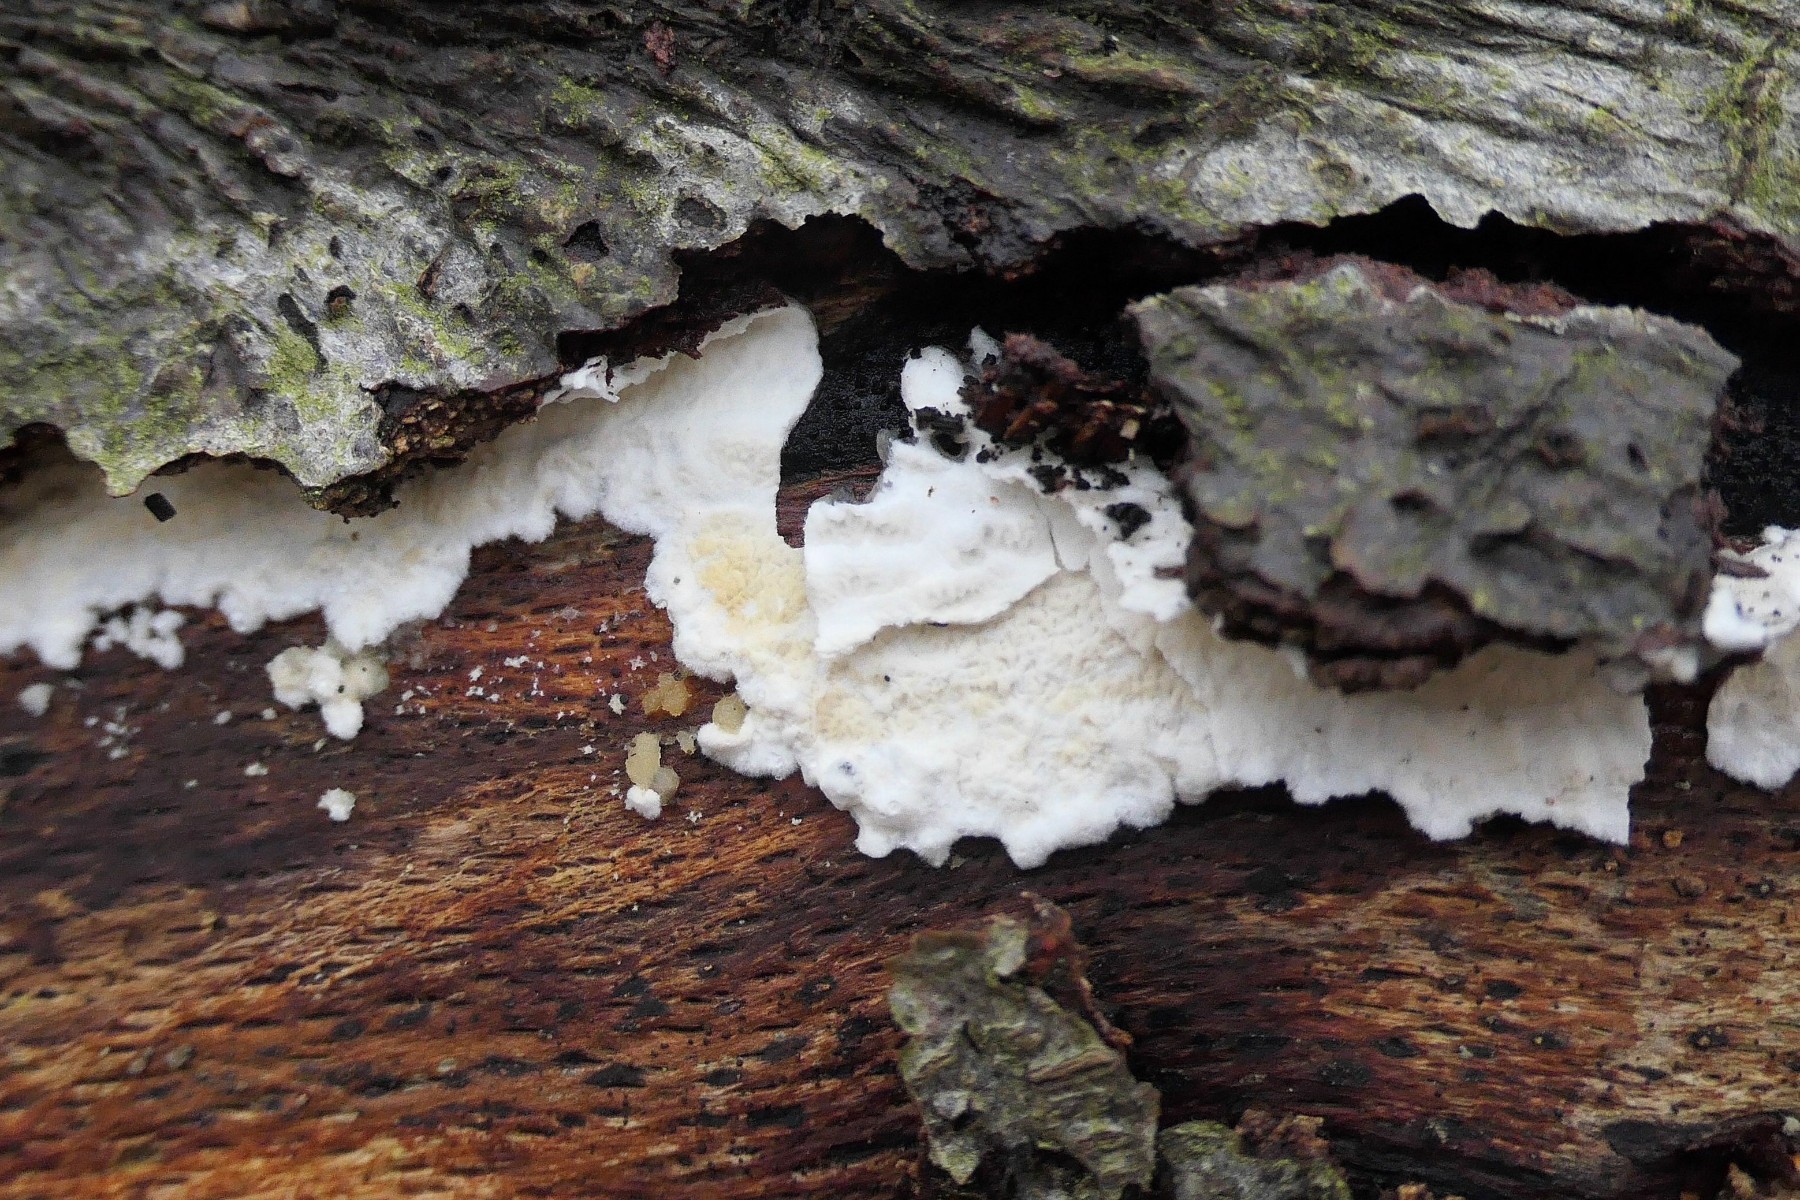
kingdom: Fungi
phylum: Basidiomycota
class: Agaricomycetes
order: Polyporales
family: Irpicaceae
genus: Byssomerulius
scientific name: Byssomerulius corium
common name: læder-åresvamp
